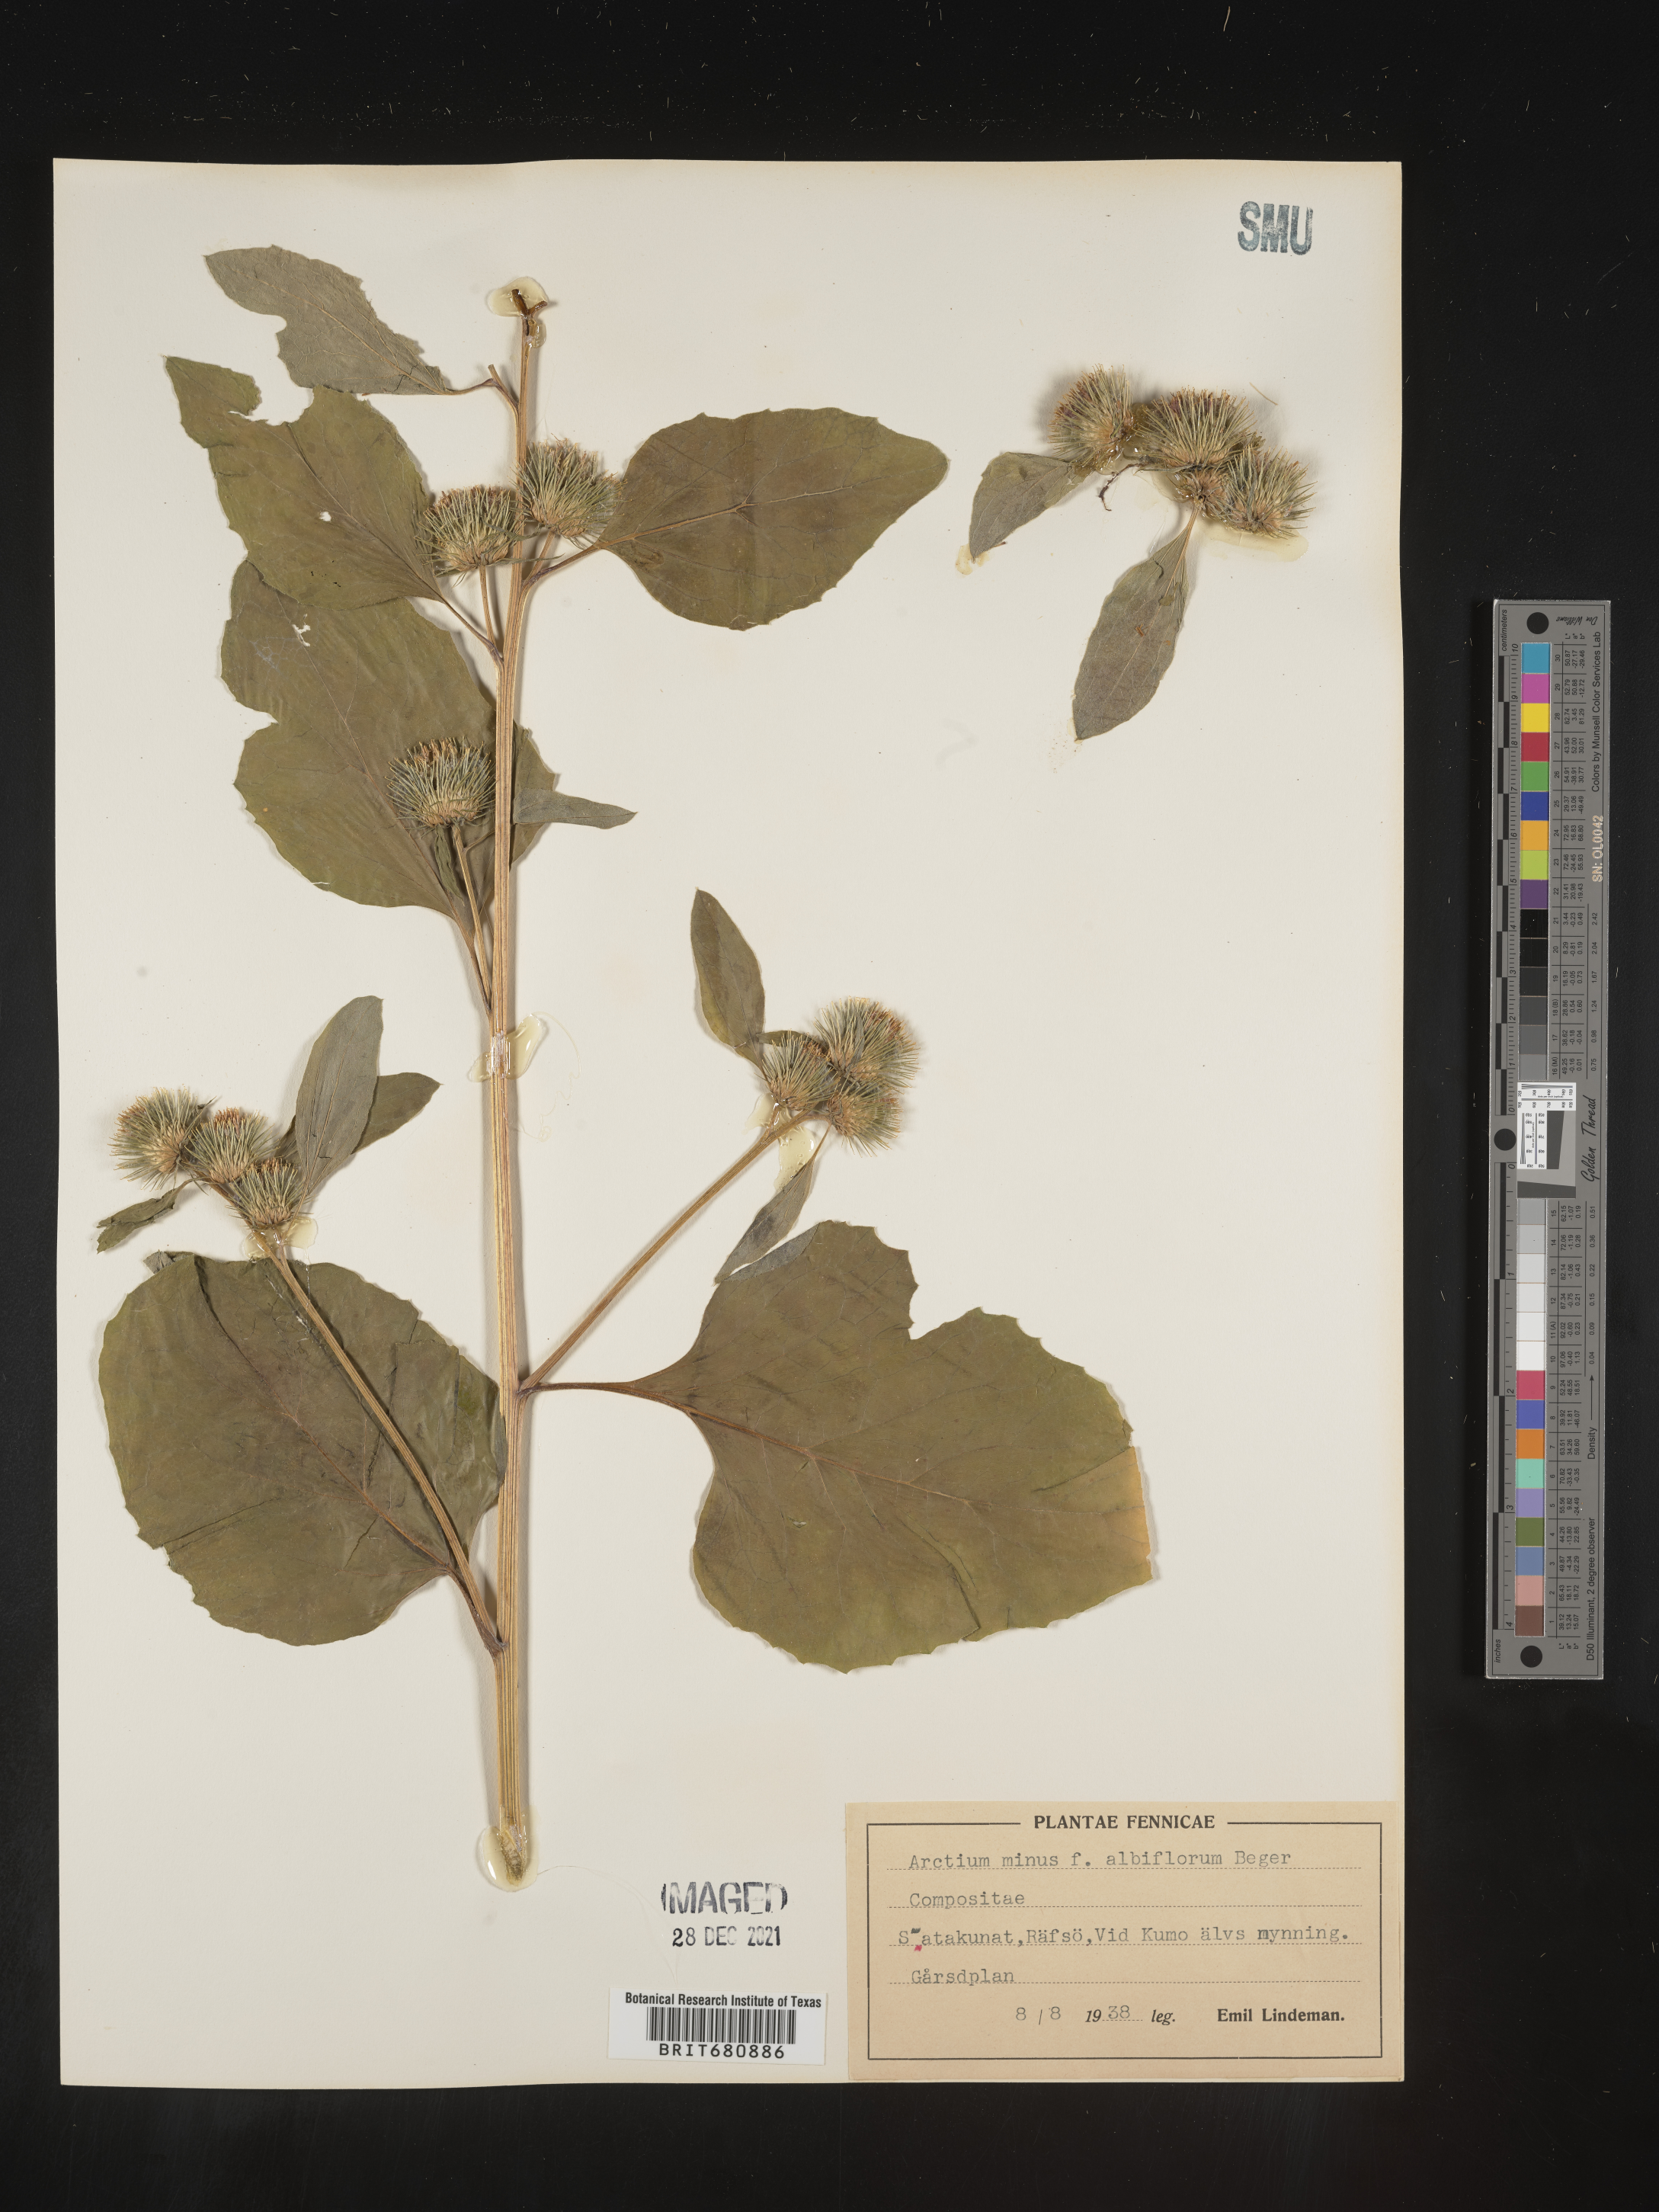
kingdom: Plantae
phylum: Tracheophyta
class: Magnoliopsida
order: Asterales
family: Asteraceae
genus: Arctium
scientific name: Arctium
